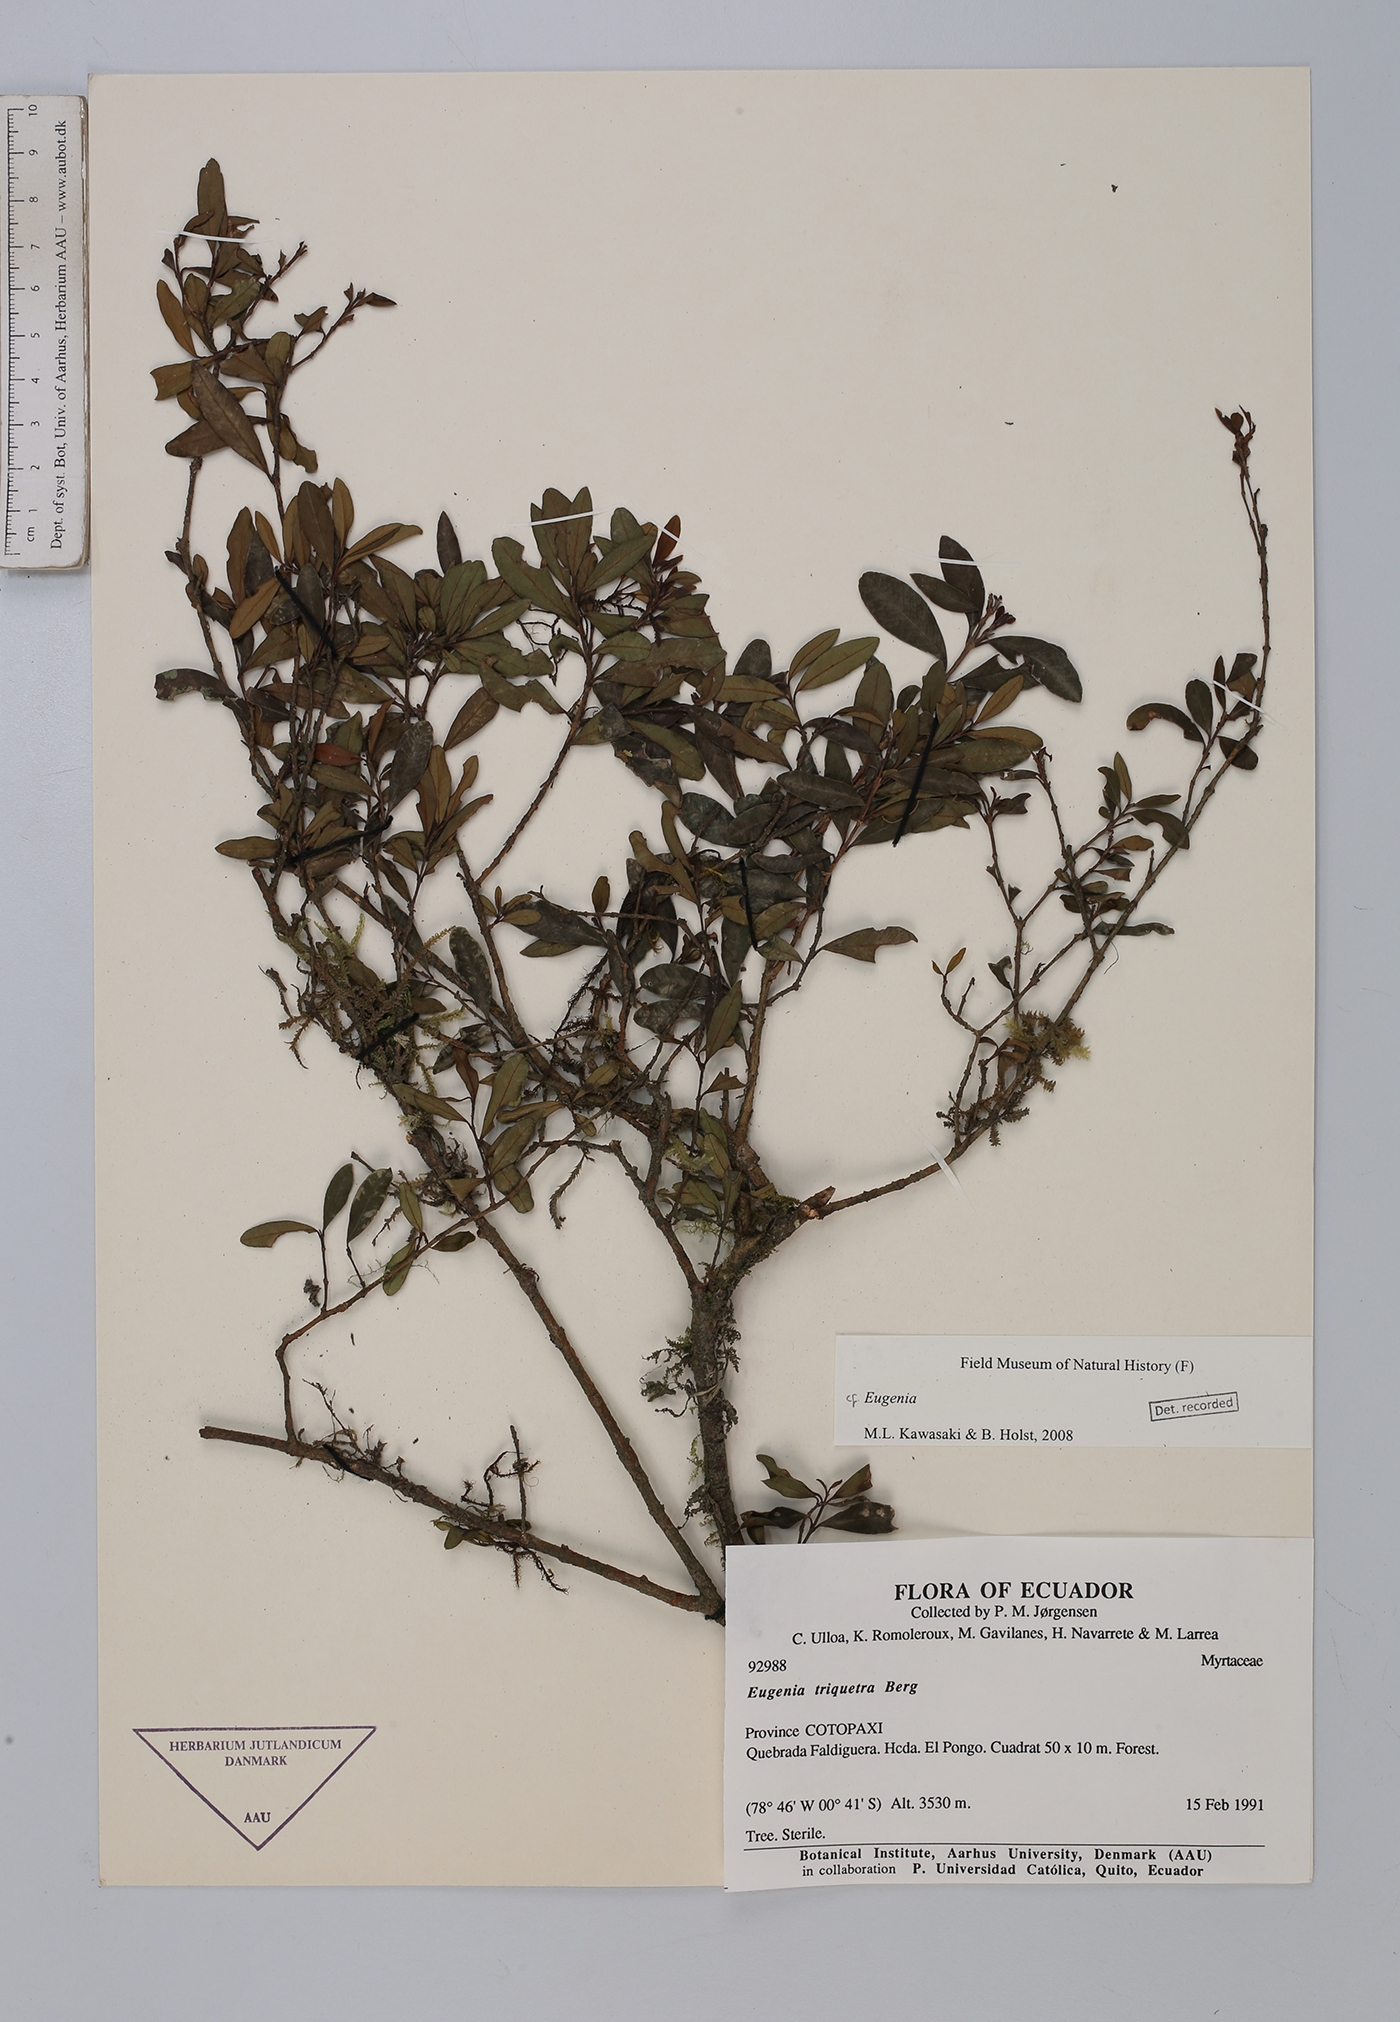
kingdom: Plantae
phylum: Tracheophyta
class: Magnoliopsida
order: Myrtales
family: Myrtaceae
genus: Eugenia
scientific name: Eugenia
